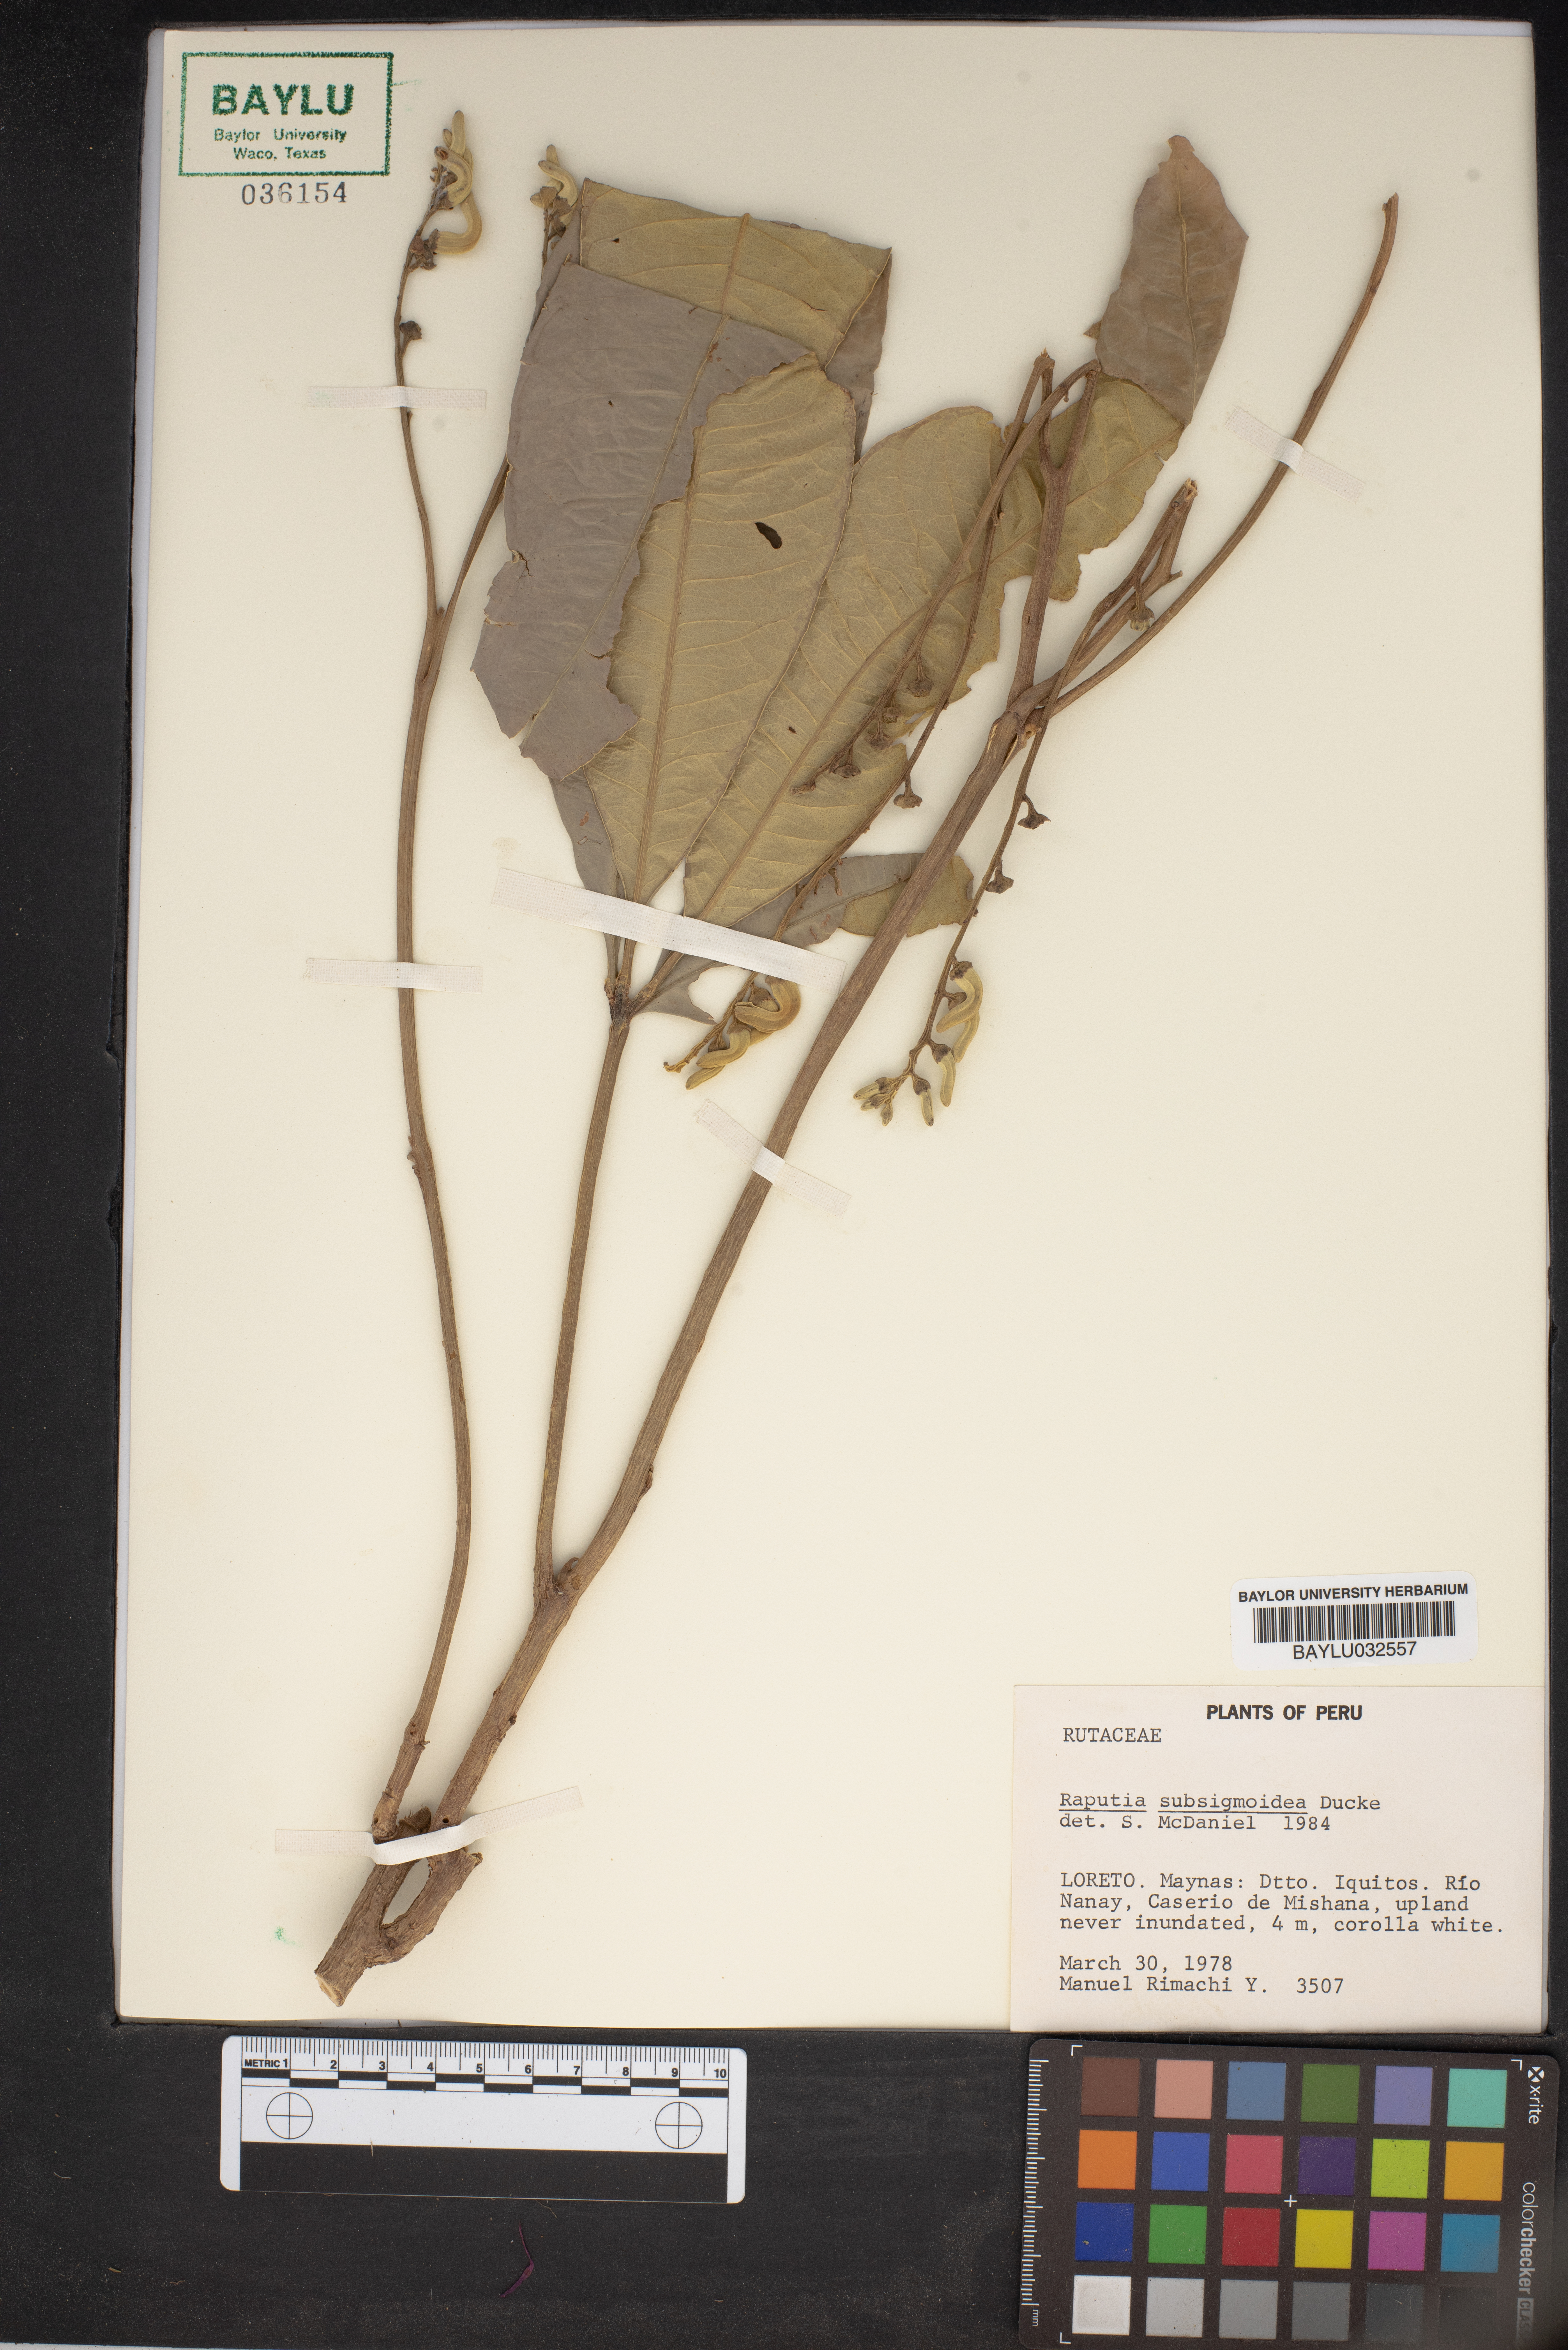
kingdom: Plantae
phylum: Tracheophyta
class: Magnoliopsida
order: Sapindales
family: Rutaceae
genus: Raputiarana
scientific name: Raputiarana subsigmoidea
